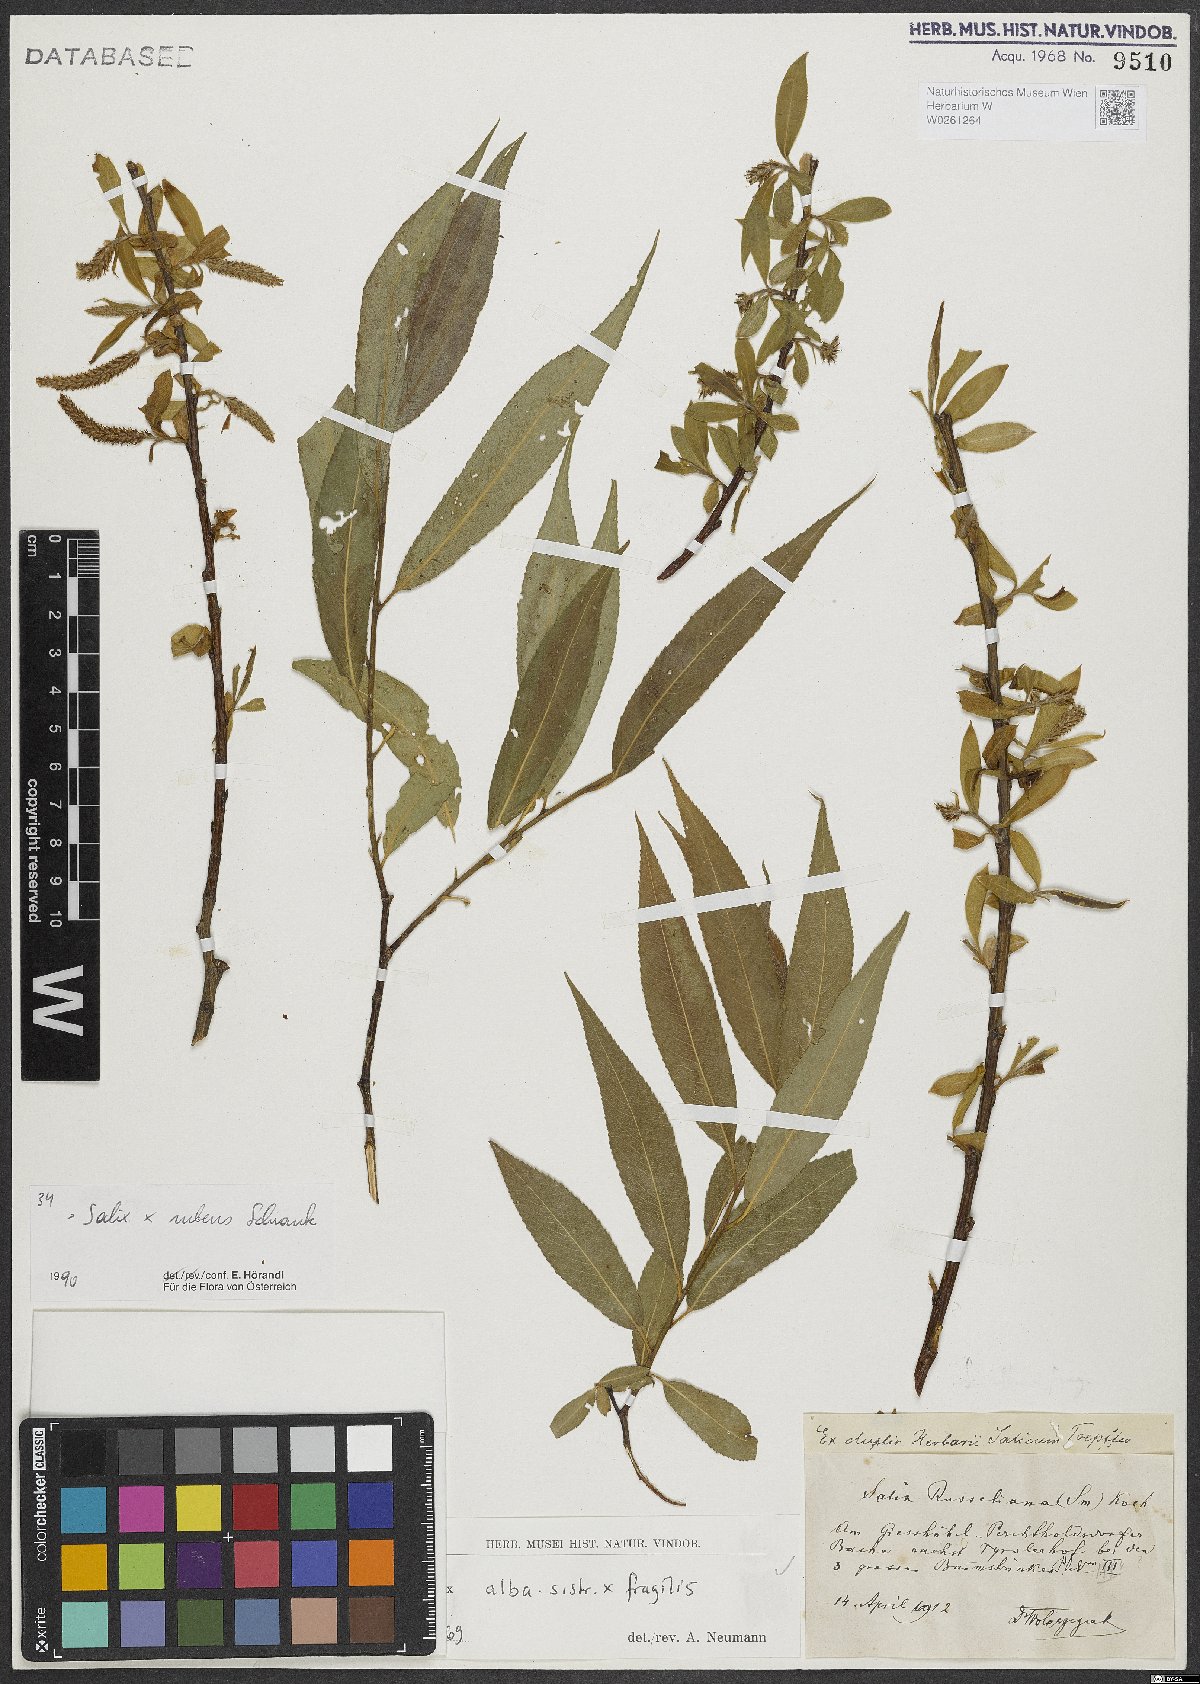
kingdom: Plantae
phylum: Tracheophyta
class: Magnoliopsida
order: Malpighiales
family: Salicaceae
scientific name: Salicaceae
